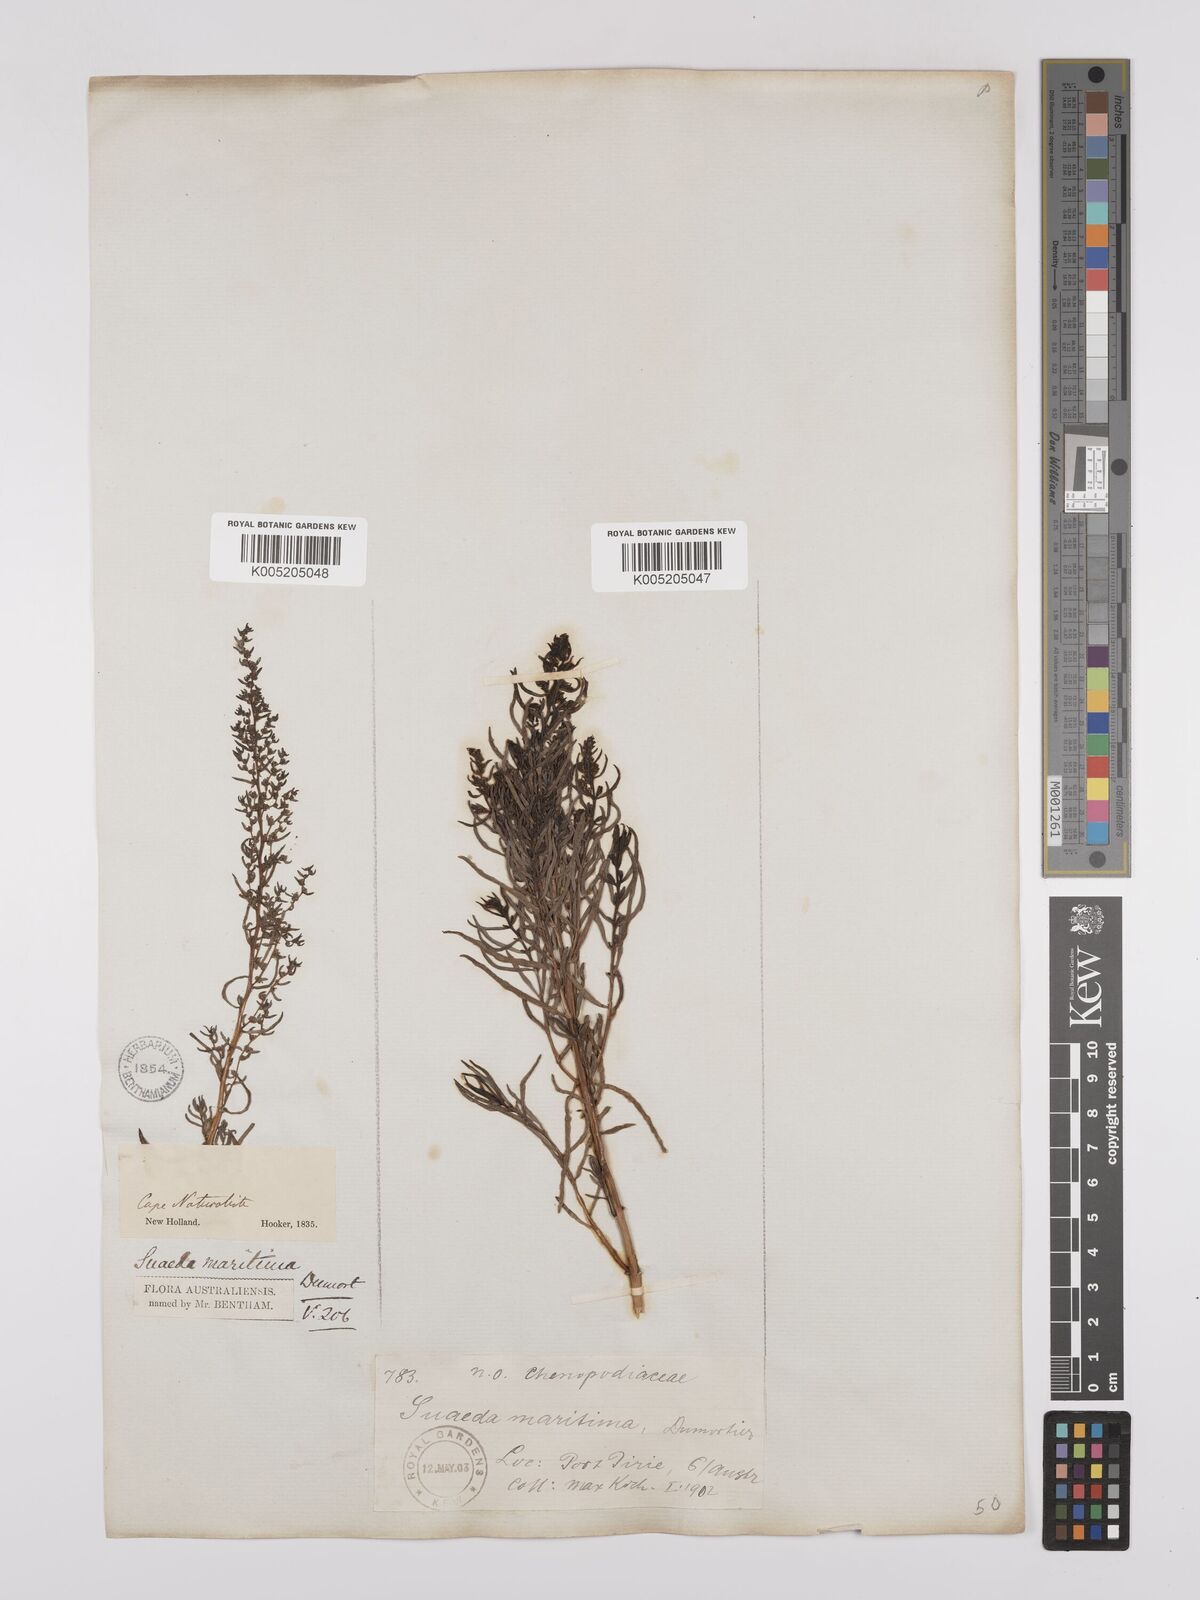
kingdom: Plantae
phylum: Tracheophyta
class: Magnoliopsida
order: Caryophyllales
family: Amaranthaceae
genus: Suaeda
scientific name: Suaeda australis
